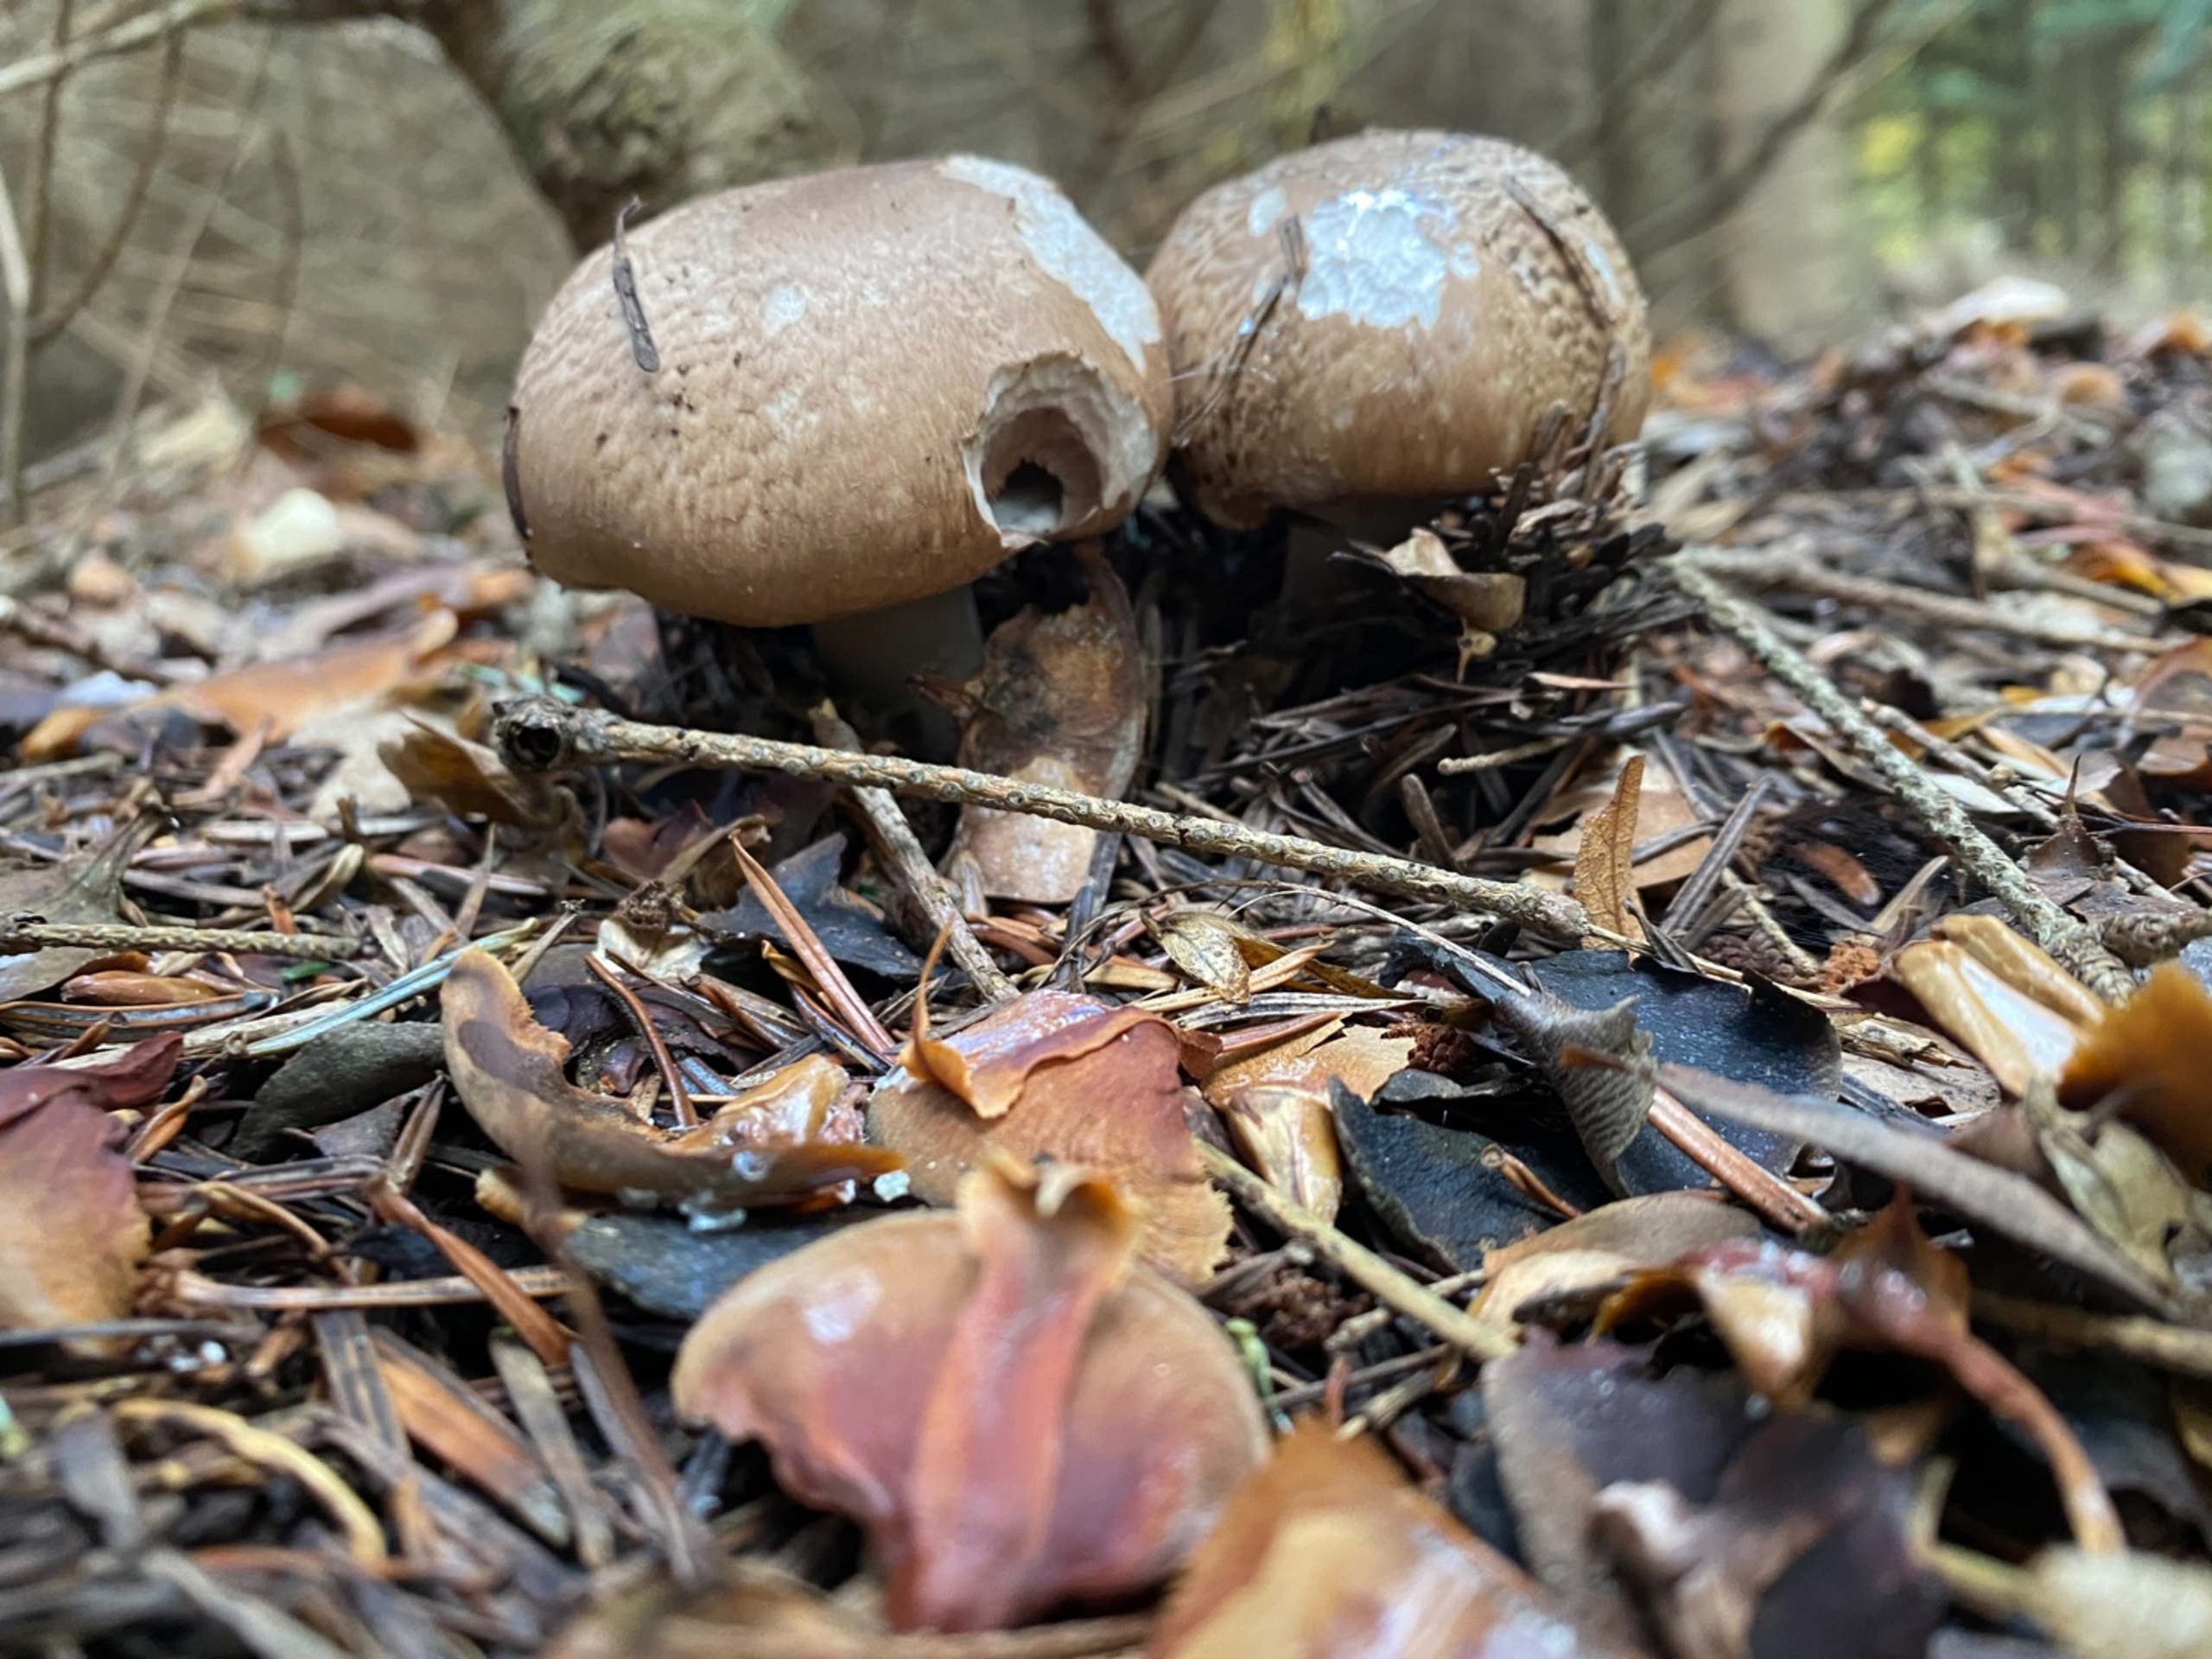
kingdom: Fungi
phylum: Basidiomycota
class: Agaricomycetes
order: Agaricales
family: Agaricaceae
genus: Agaricus
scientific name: Agaricus
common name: Champignon
